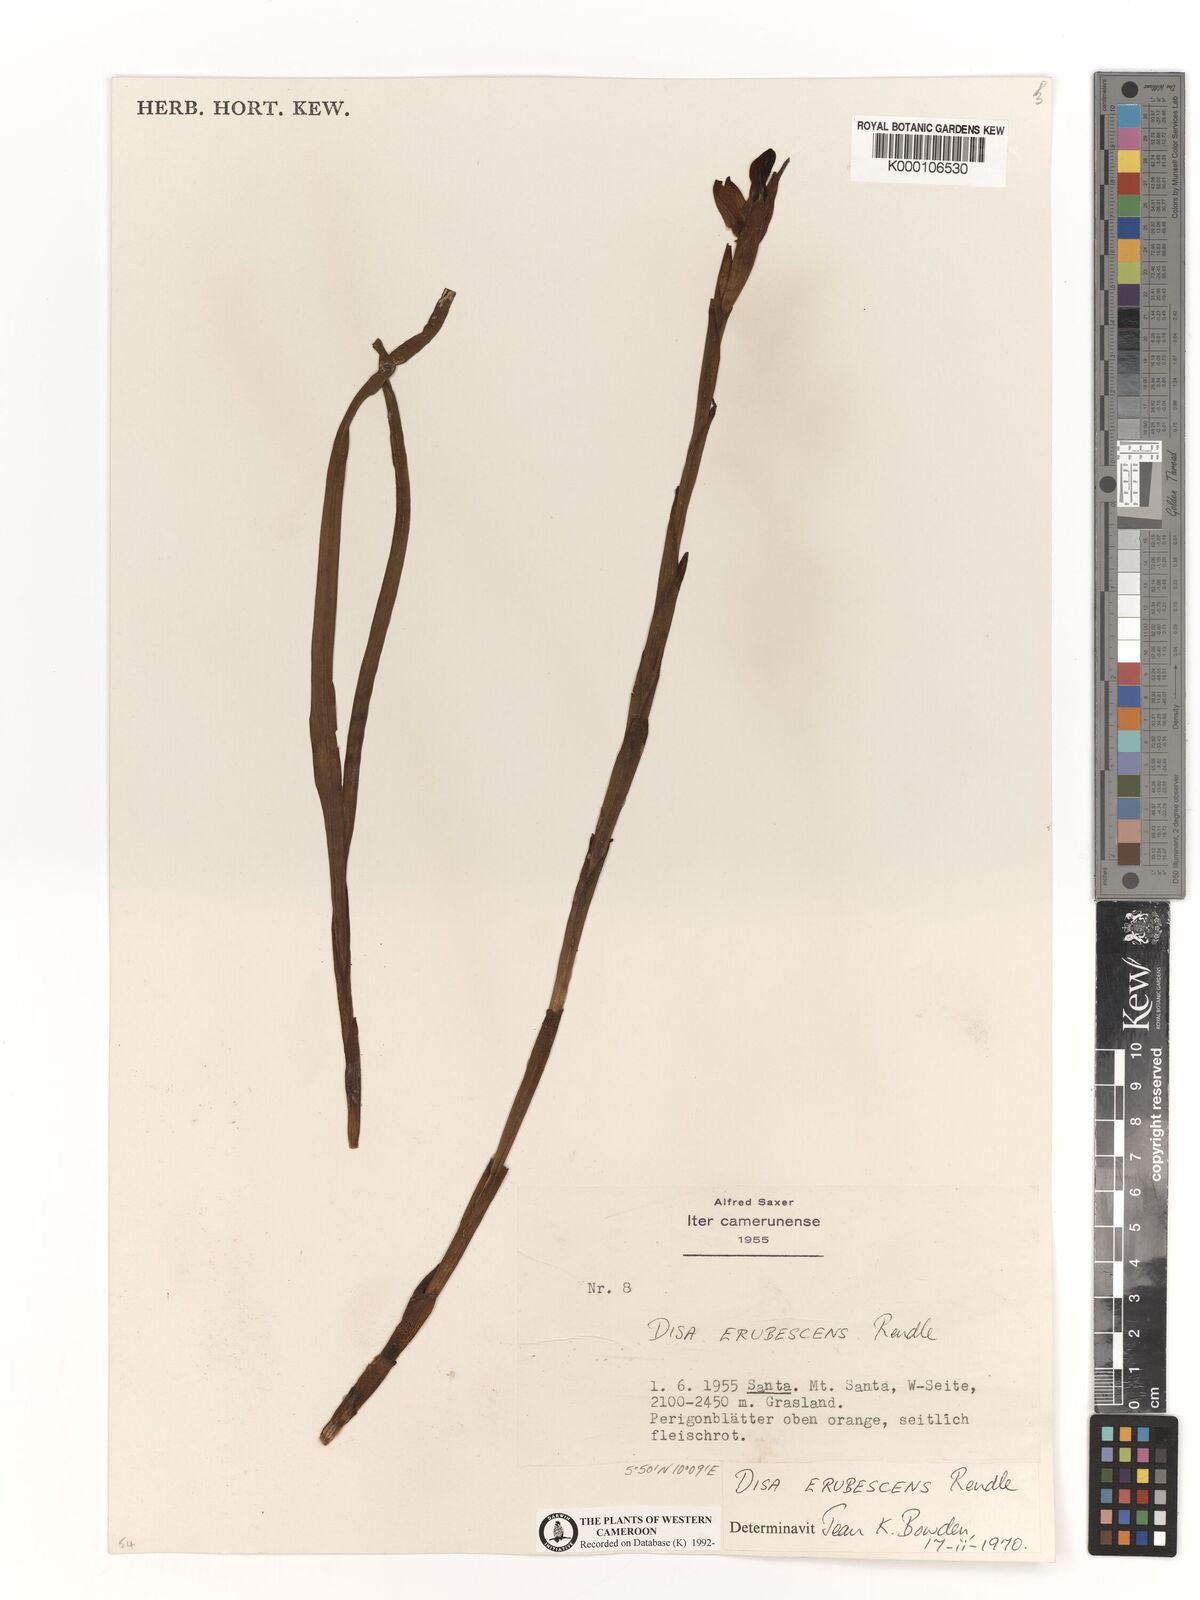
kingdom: Plantae
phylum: Tracheophyta
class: Liliopsida
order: Asparagales
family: Orchidaceae
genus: Disa
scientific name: Disa erubescens
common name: The rose disa
